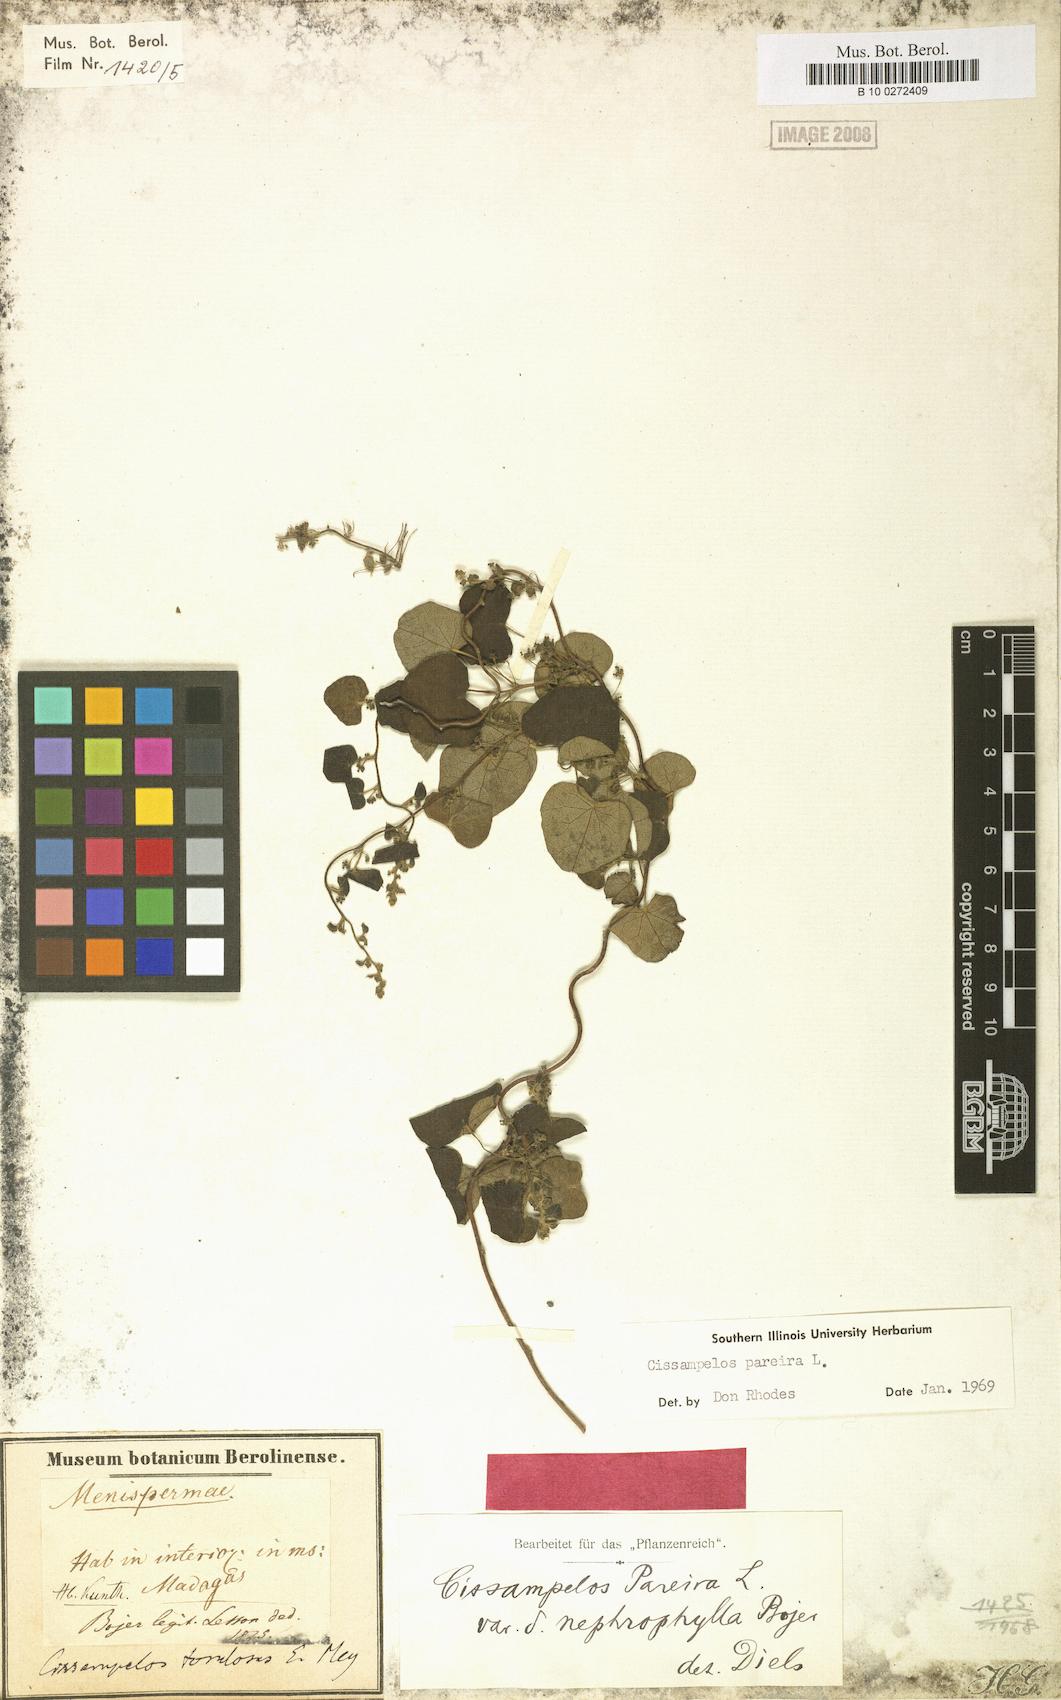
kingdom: Plantae
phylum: Tracheophyta
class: Magnoliopsida
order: Ranunculales
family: Menispermaceae
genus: Cissampelos
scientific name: Cissampelos pareira
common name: Velvetleaf
